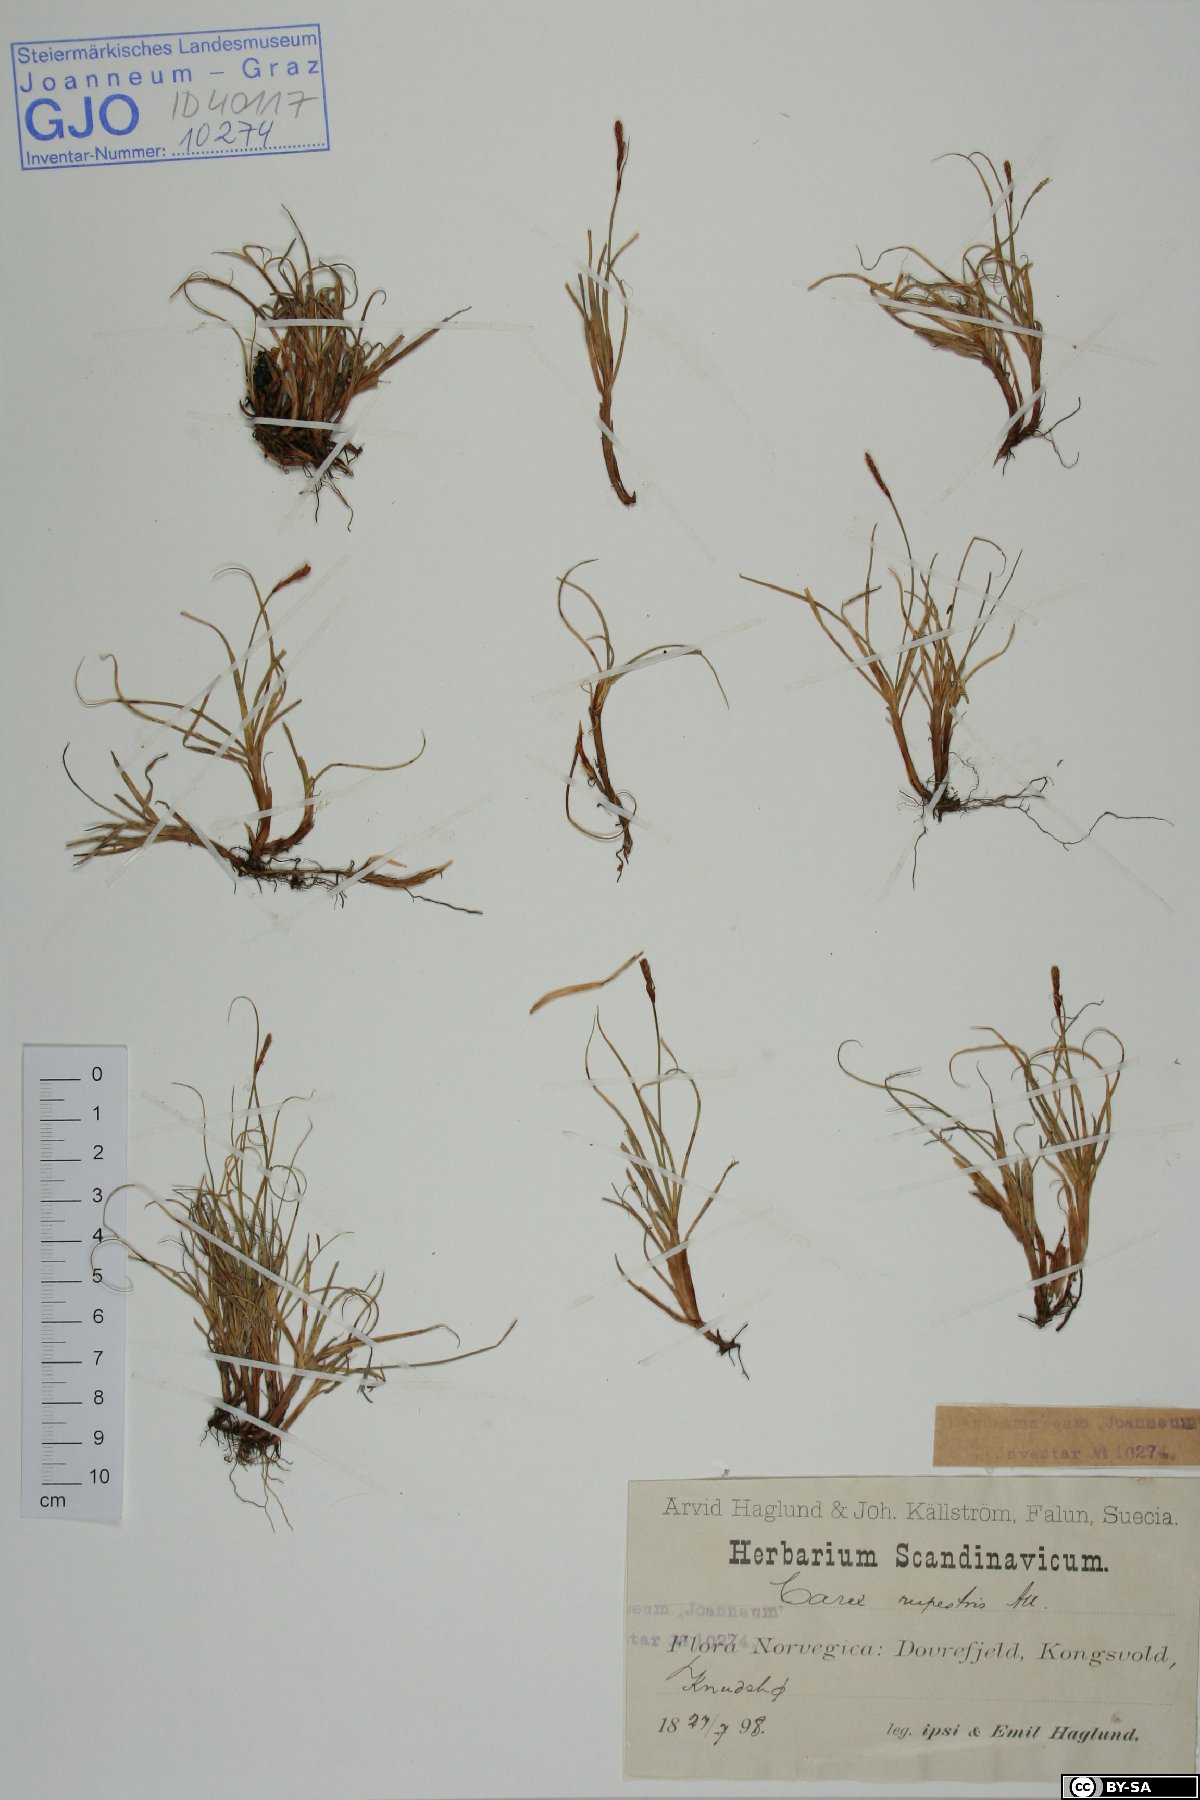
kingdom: Plantae
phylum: Tracheophyta
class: Liliopsida
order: Poales
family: Cyperaceae
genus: Carex
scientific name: Carex rupestris
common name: Rock sedge
